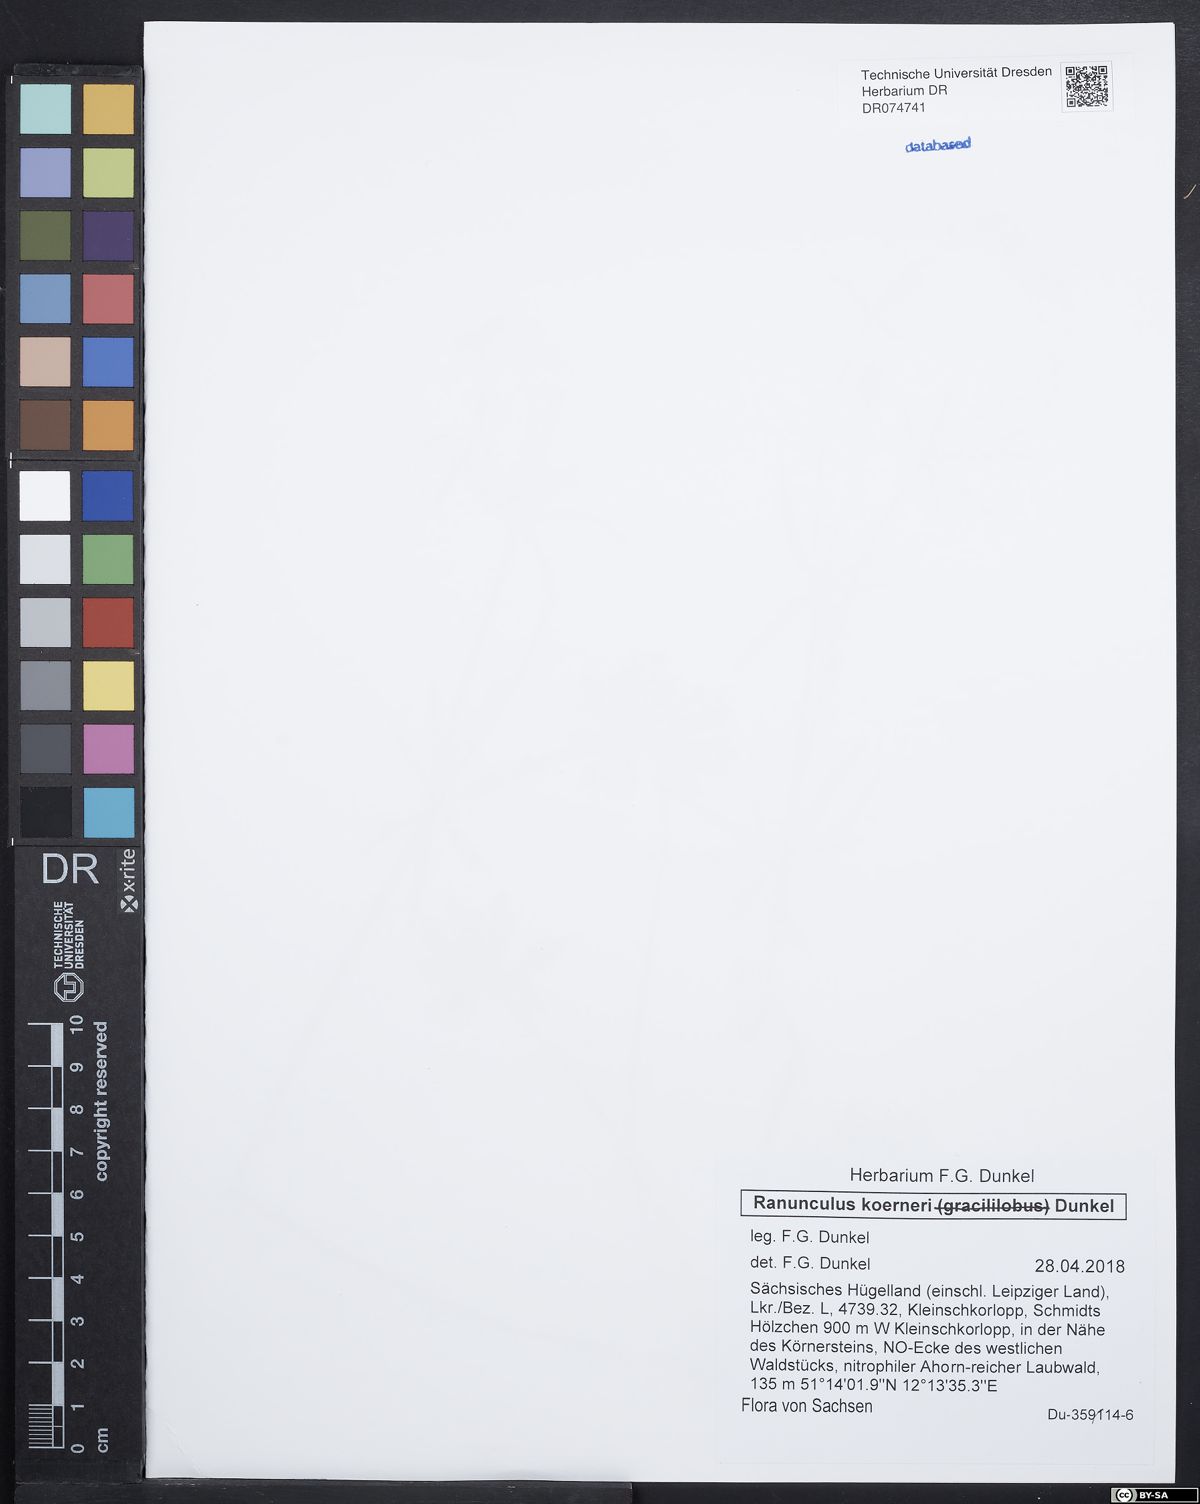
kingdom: Plantae
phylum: Tracheophyta
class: Magnoliopsida
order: Ranunculales
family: Ranunculaceae
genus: Ranunculus
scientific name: Ranunculus koerneri
